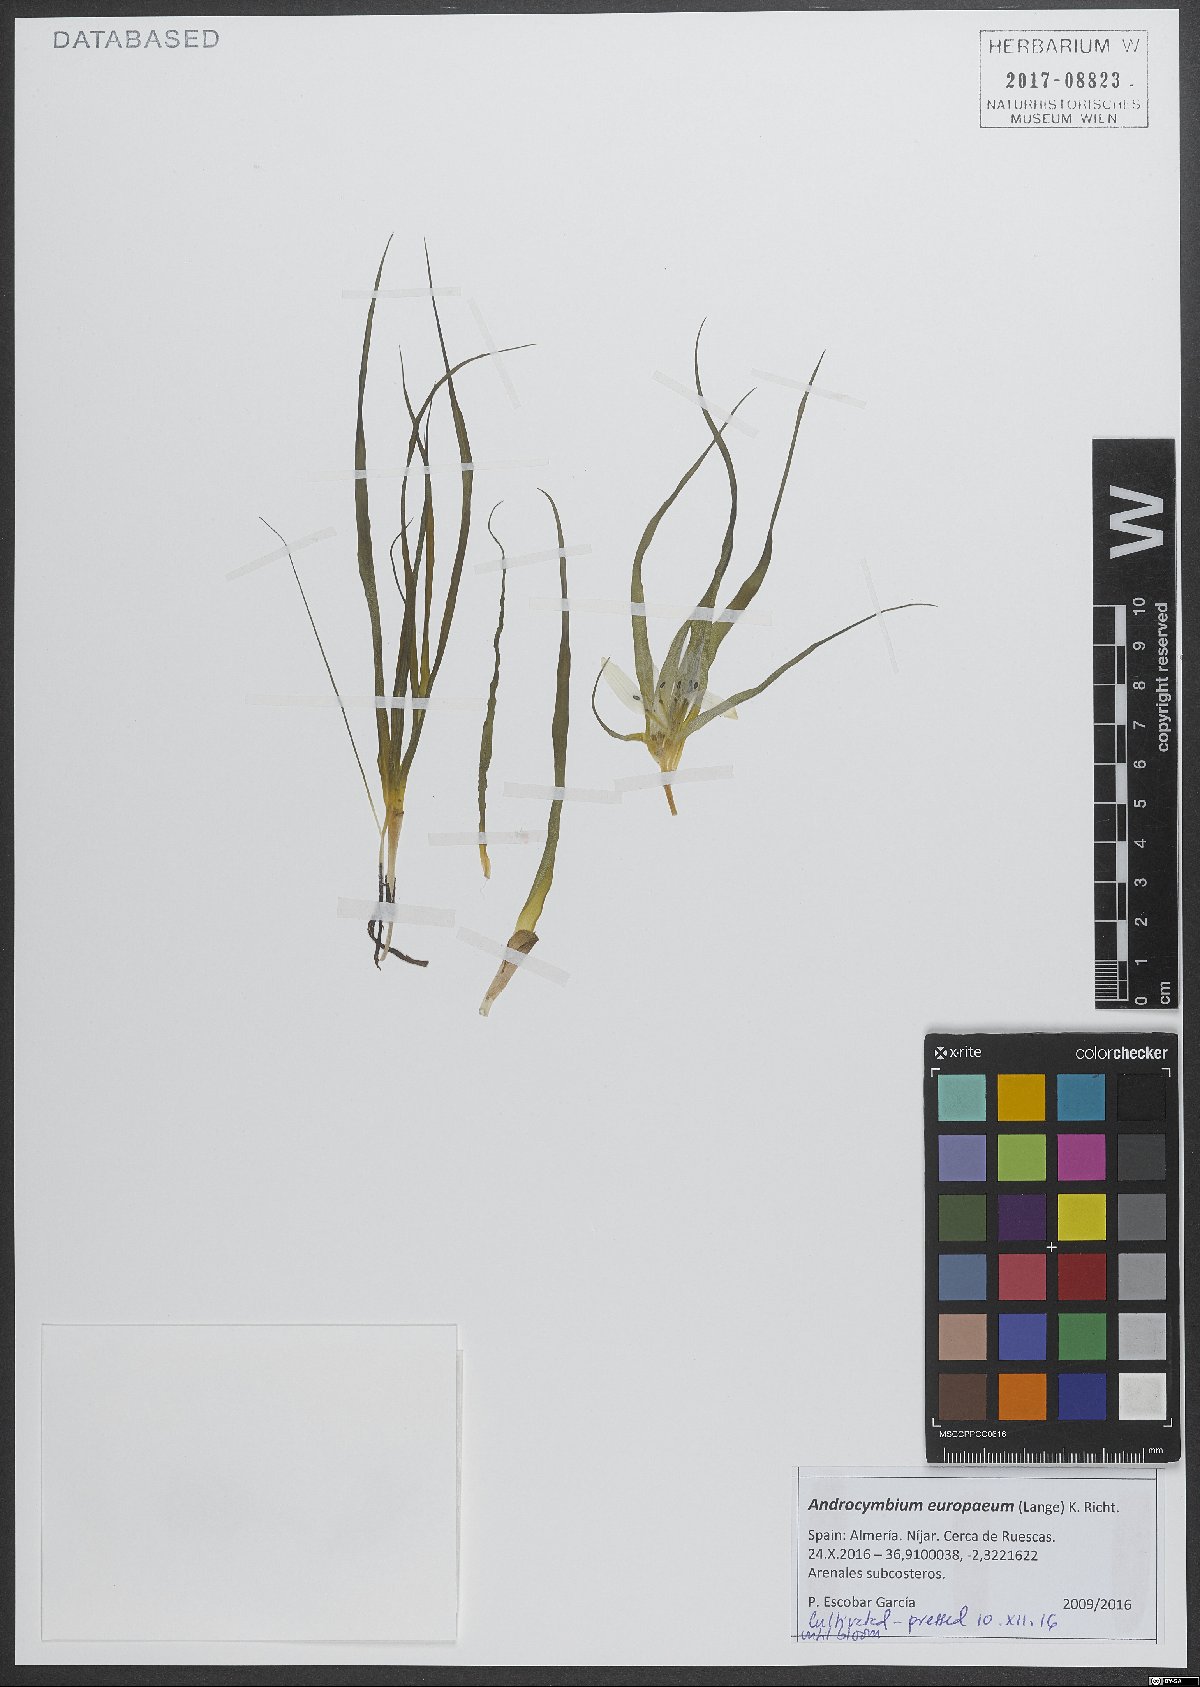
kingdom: Plantae
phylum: Tracheophyta
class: Liliopsida
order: Liliales
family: Colchicaceae
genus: Colchicum
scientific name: Colchicum europaeum
